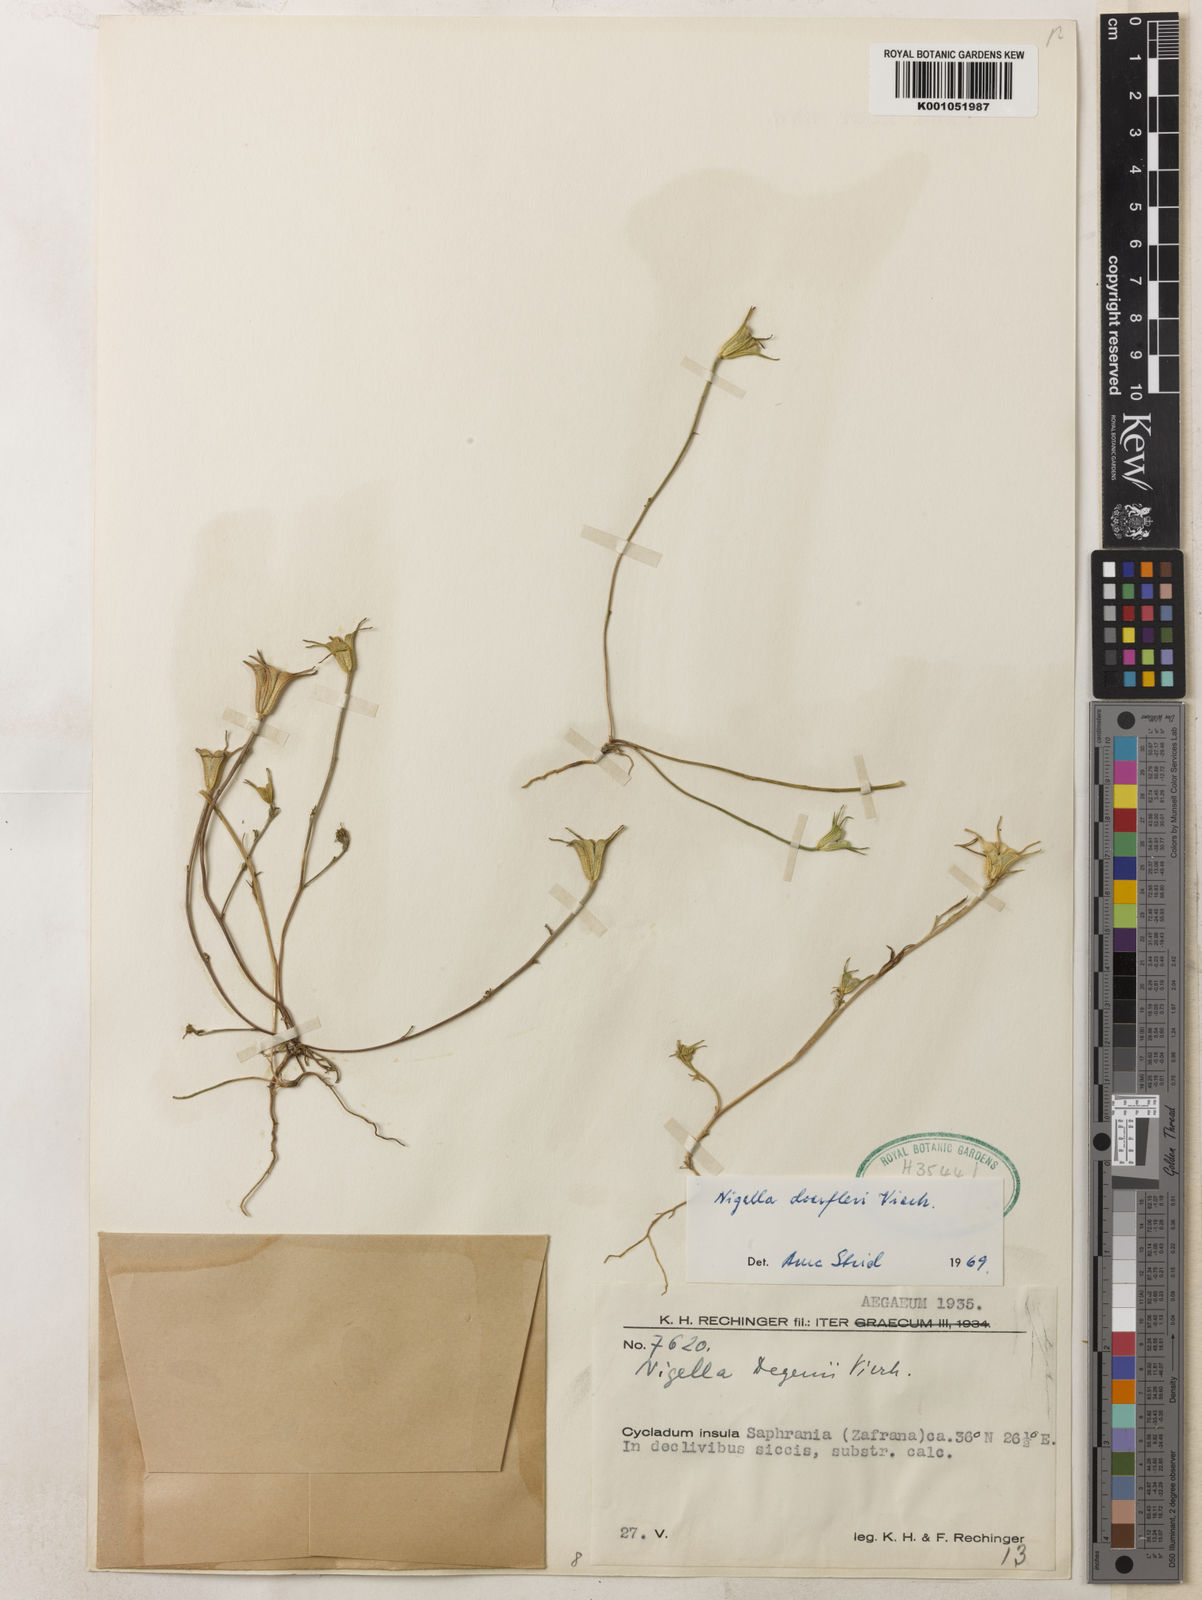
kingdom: Plantae
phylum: Tracheophyta
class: Magnoliopsida
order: Ranunculales
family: Ranunculaceae
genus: Nigella
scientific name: Nigella arvensis
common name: Wild fennel-flower
